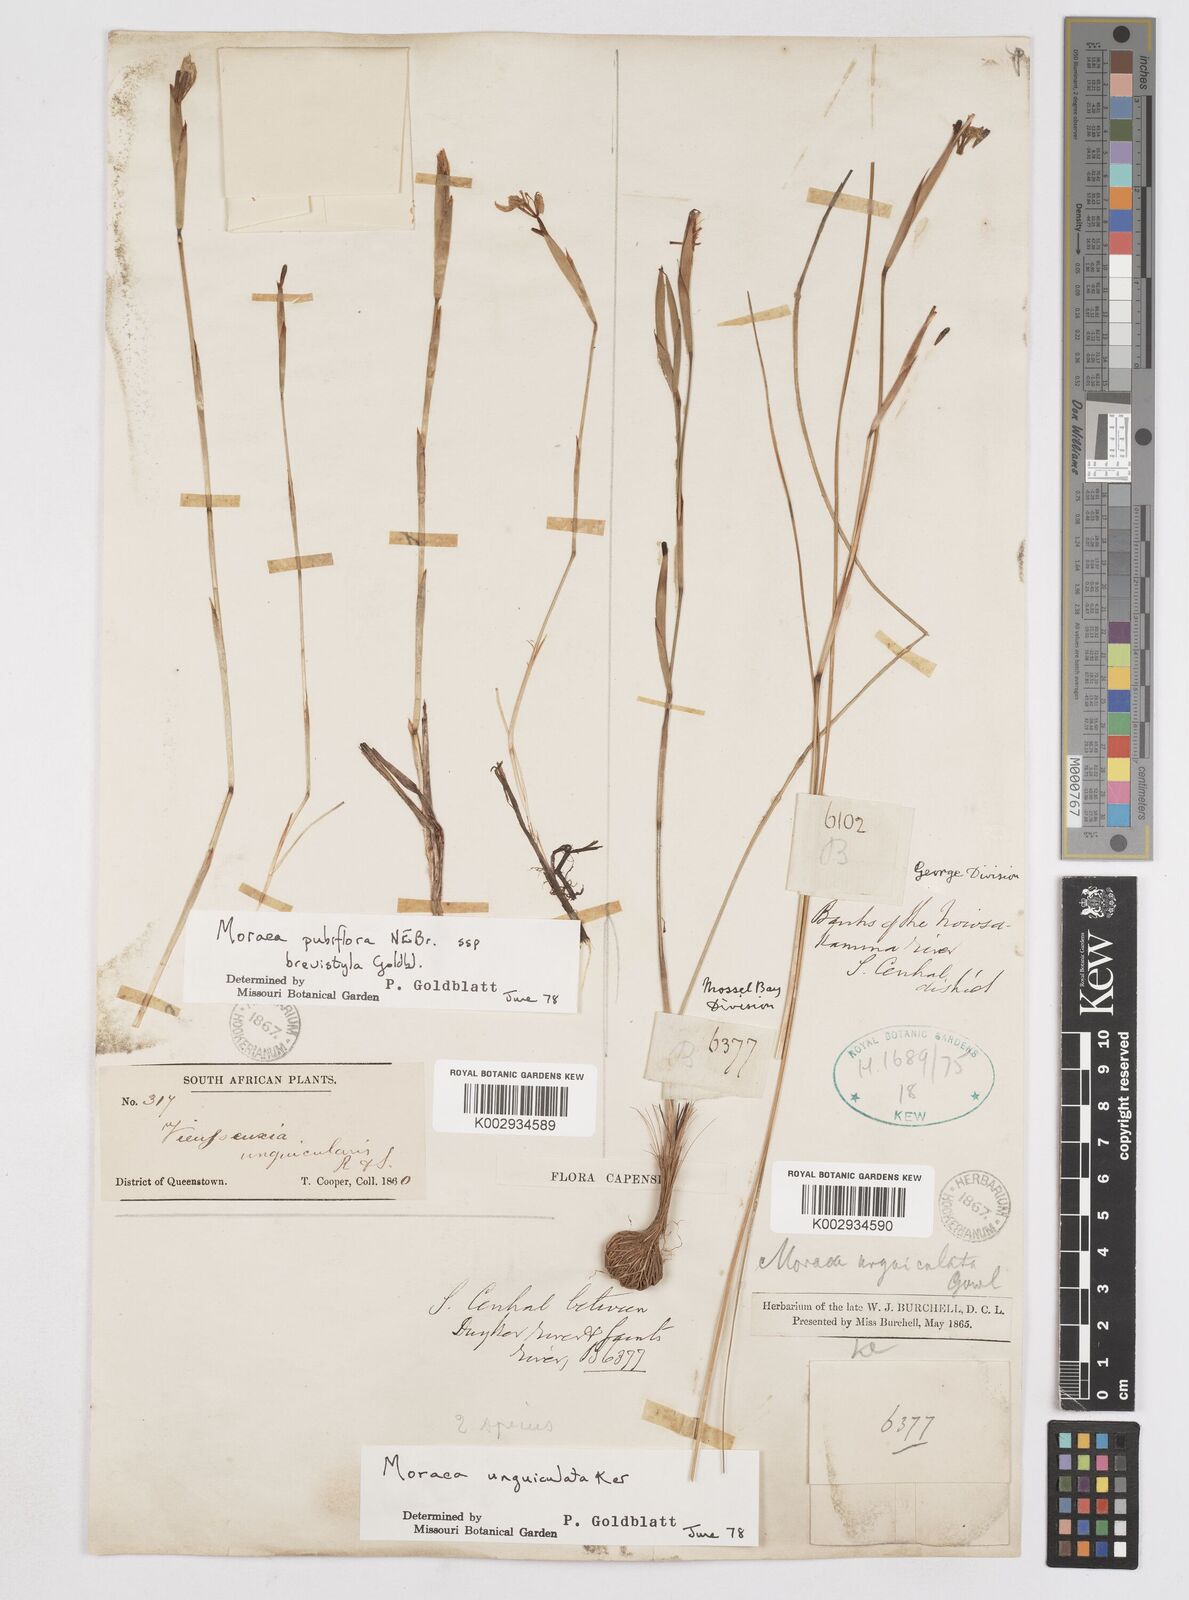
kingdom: Plantae
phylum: Tracheophyta
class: Liliopsida
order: Asparagales
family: Iridaceae
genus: Moraea
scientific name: Moraea brevistyla
